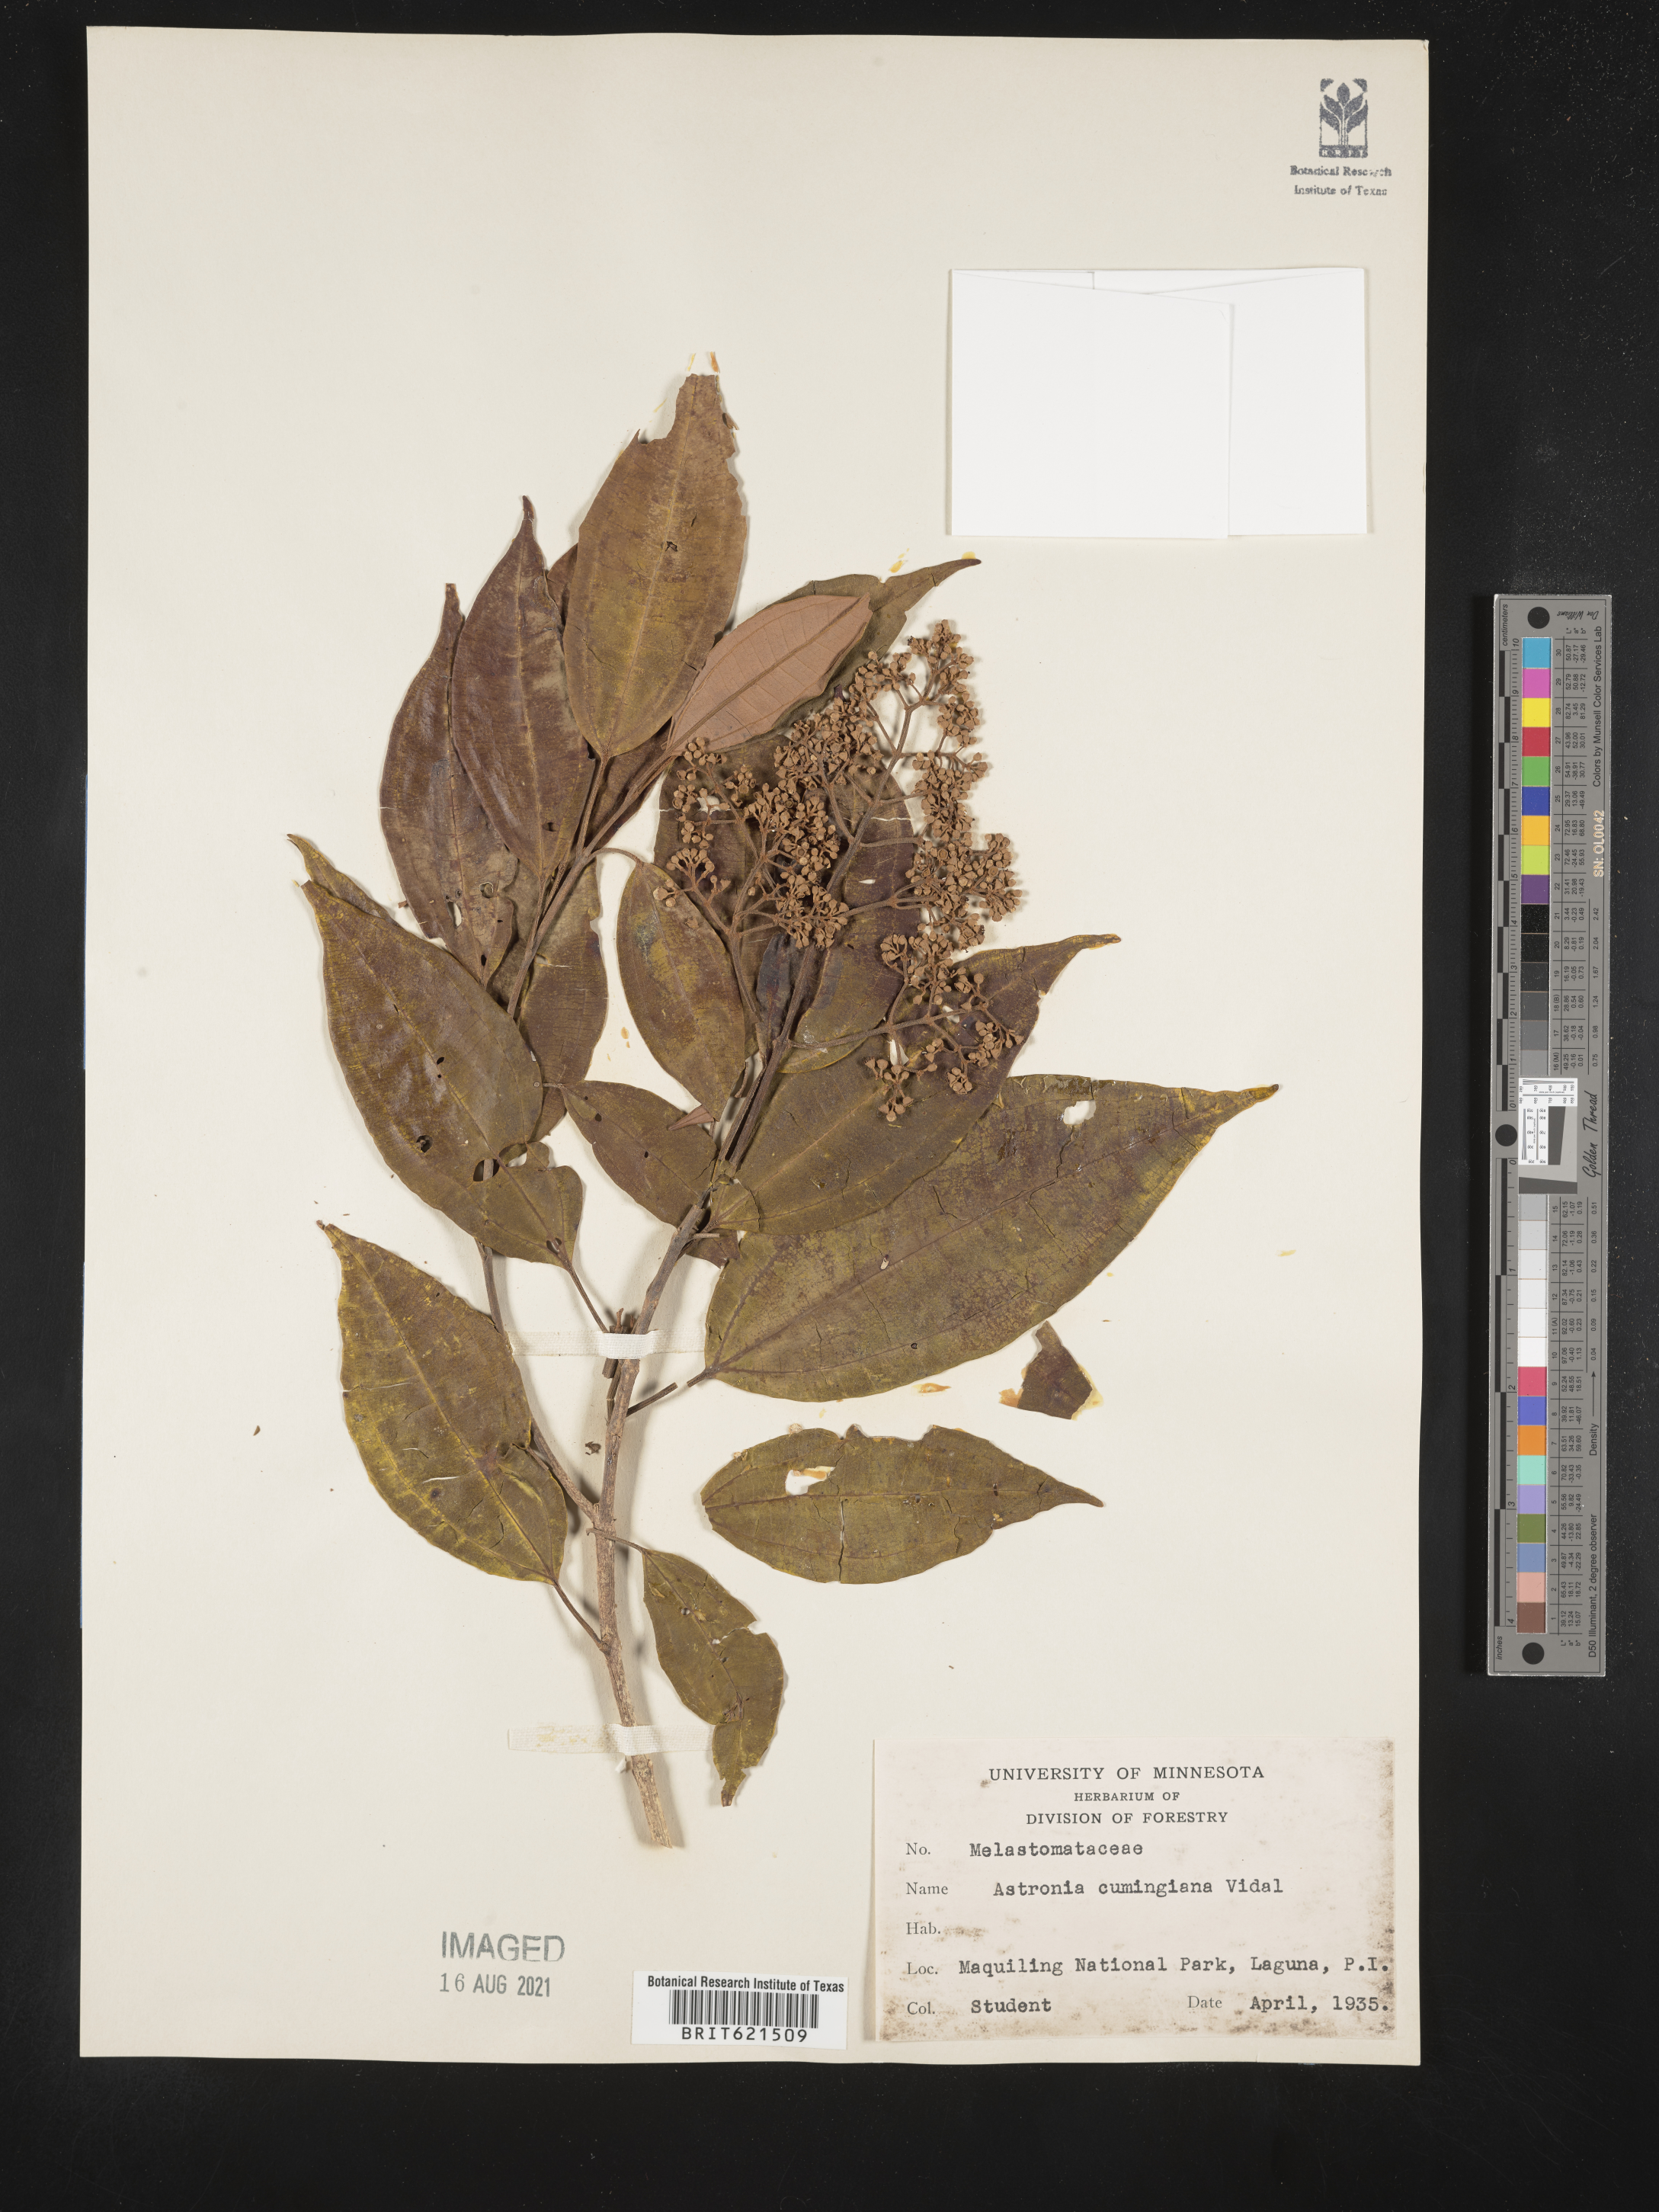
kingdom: Plantae
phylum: Tracheophyta
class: Magnoliopsida
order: Myrtales
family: Melastomataceae
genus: Astronia
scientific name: Astronia cumingiana
